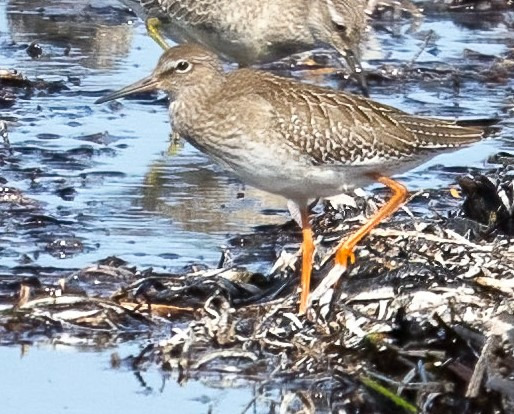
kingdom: Animalia
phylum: Chordata
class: Aves
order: Charadriiformes
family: Scolopacidae
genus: Tringa
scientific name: Tringa totanus
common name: Rødben
